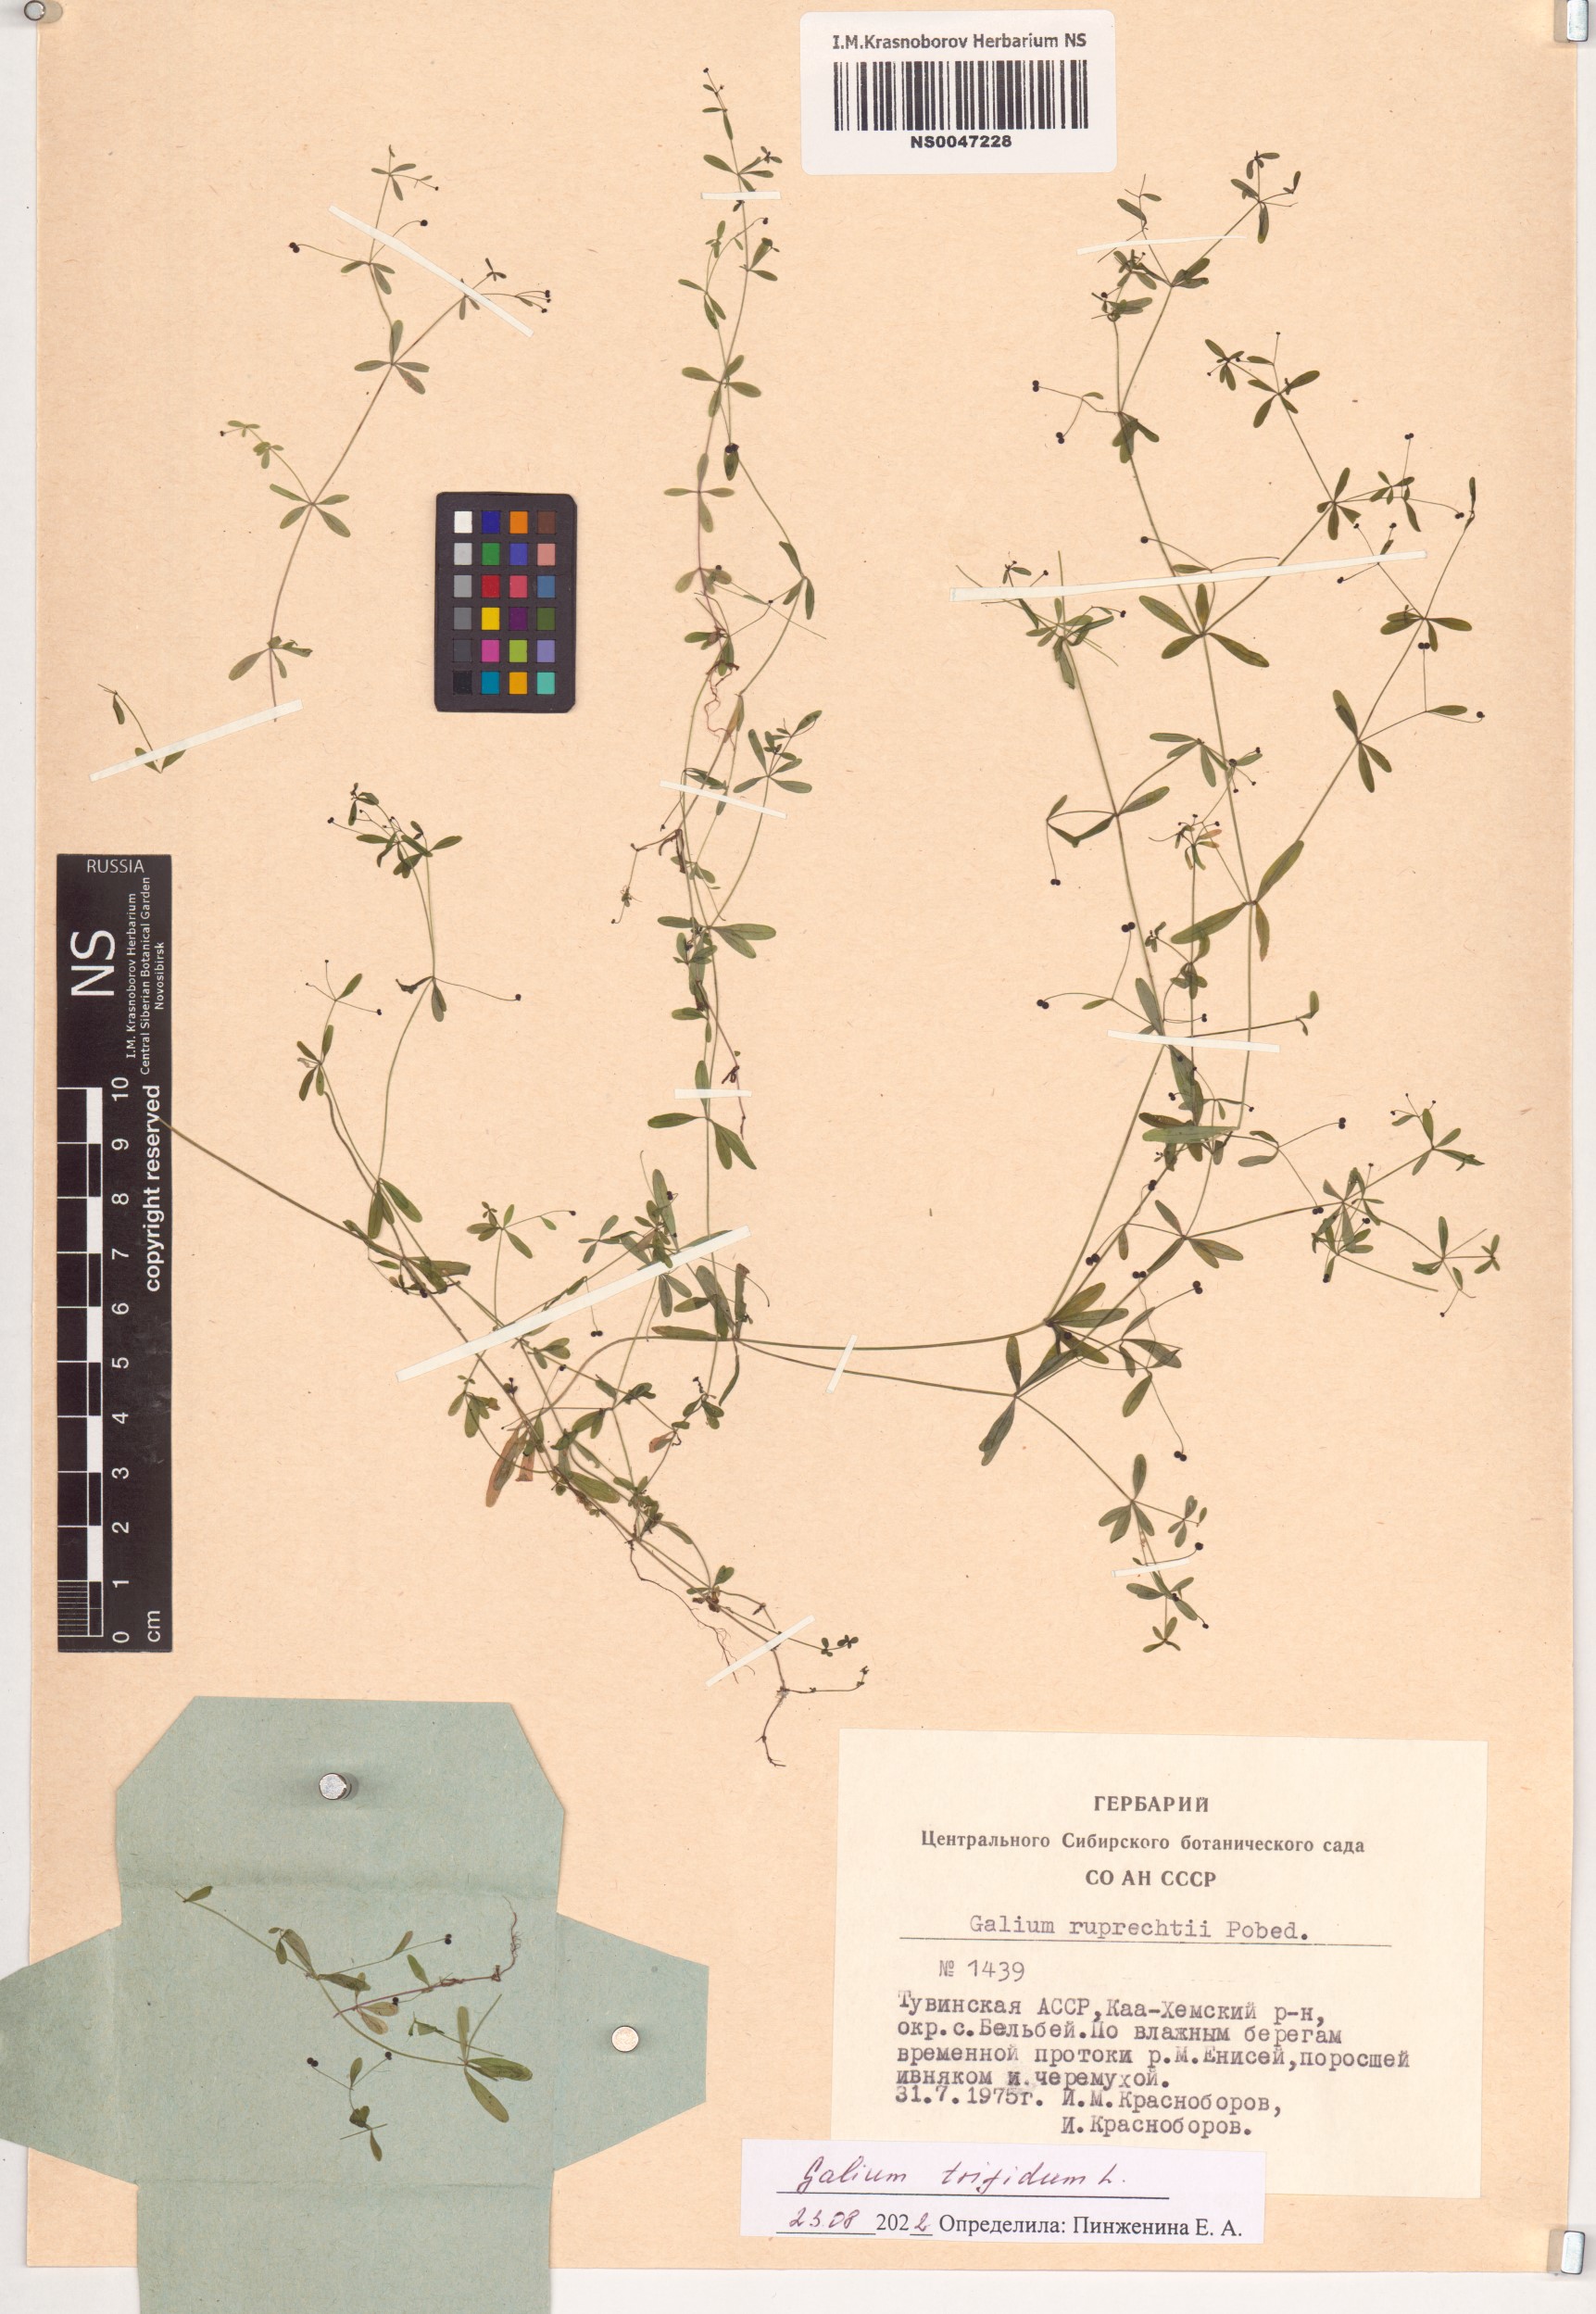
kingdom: Plantae
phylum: Tracheophyta
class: Magnoliopsida
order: Gentianales
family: Rubiaceae
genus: Galium
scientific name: Galium trifidum
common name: Small bedstraw
